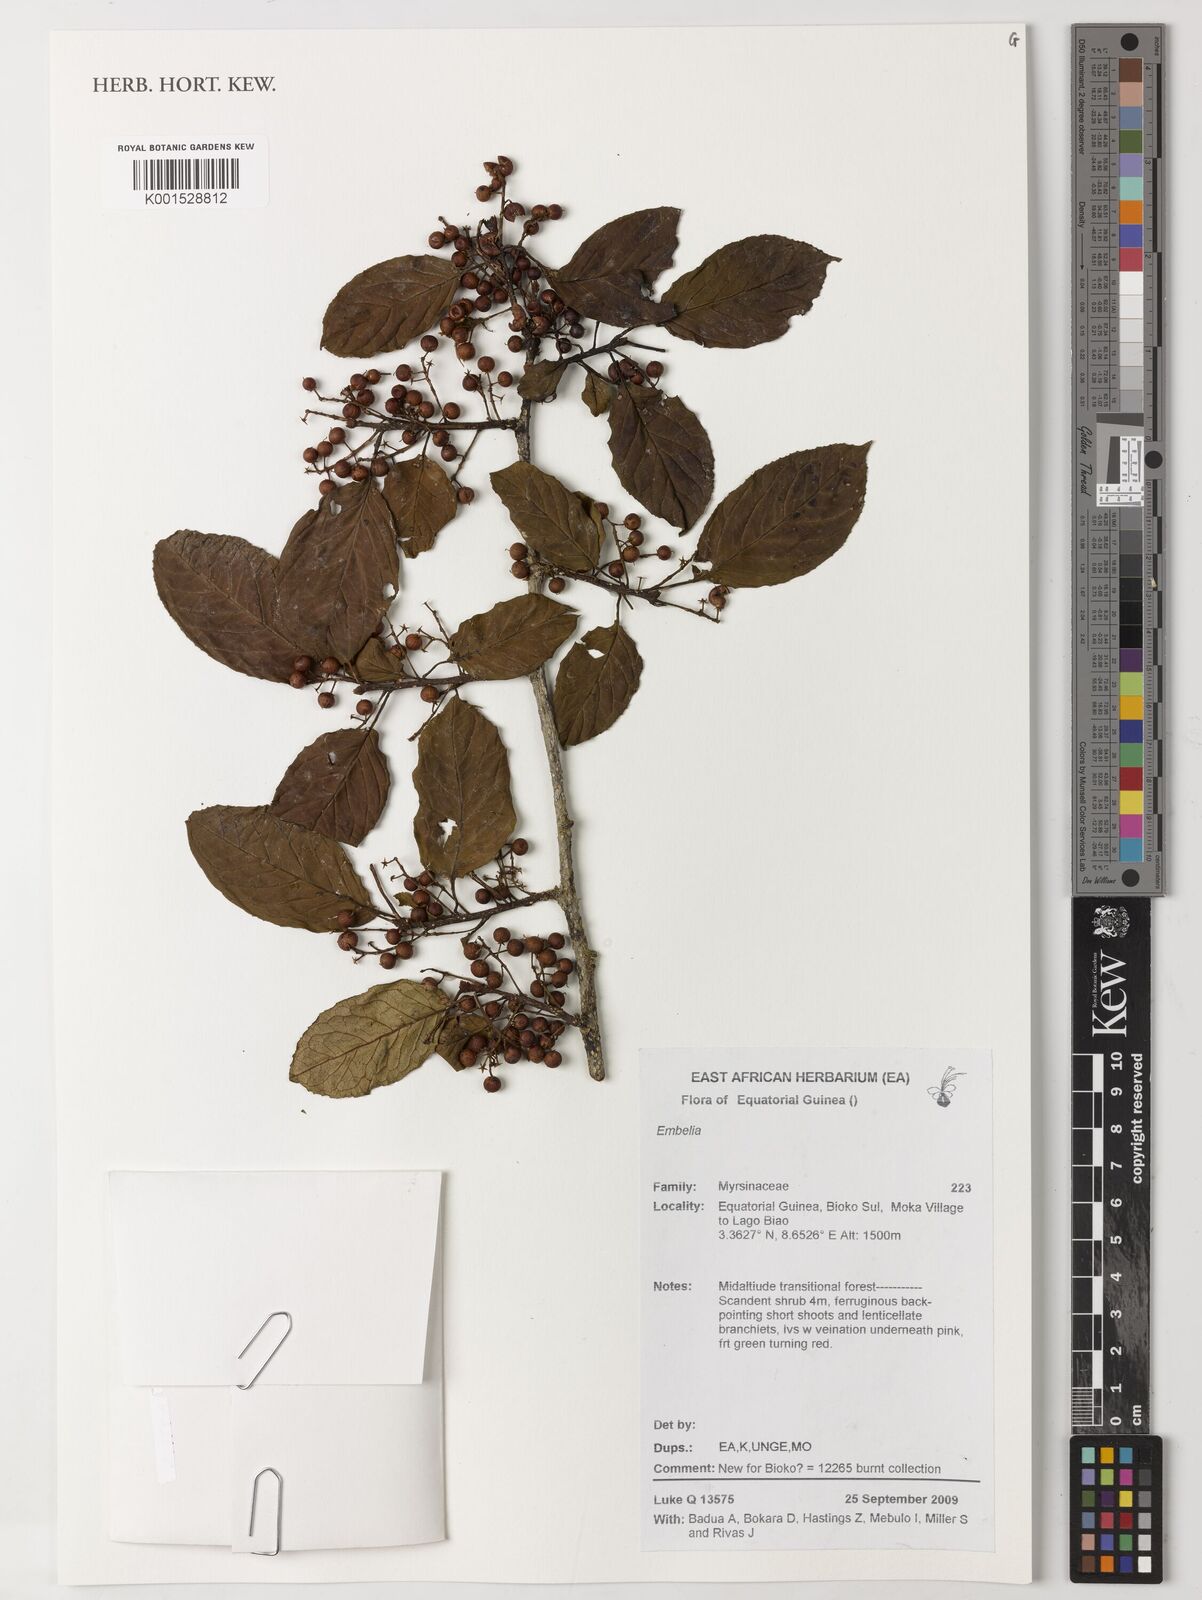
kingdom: Plantae
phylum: Tracheophyta
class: Magnoliopsida
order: Ericales
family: Primulaceae
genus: Embelia
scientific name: Embelia
